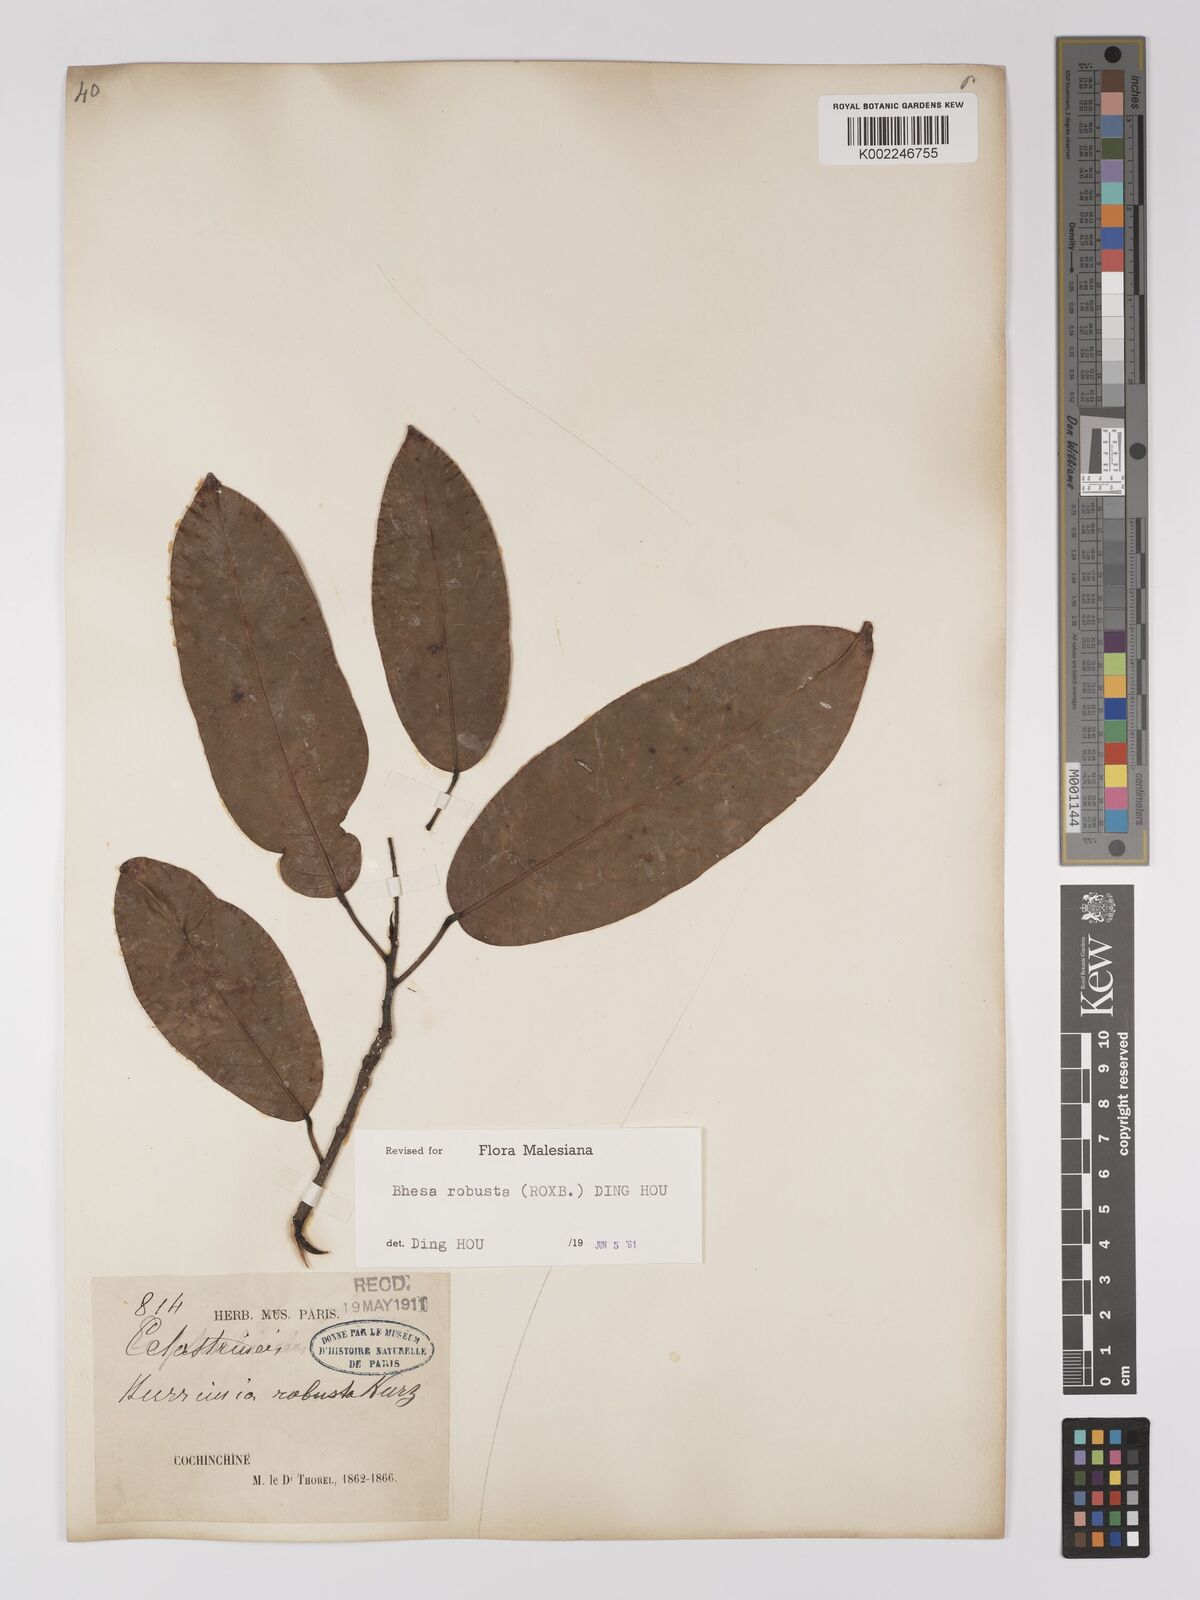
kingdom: Plantae
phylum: Tracheophyta
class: Magnoliopsida
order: Malpighiales
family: Centroplacaceae
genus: Bhesa
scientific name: Bhesa robusta
